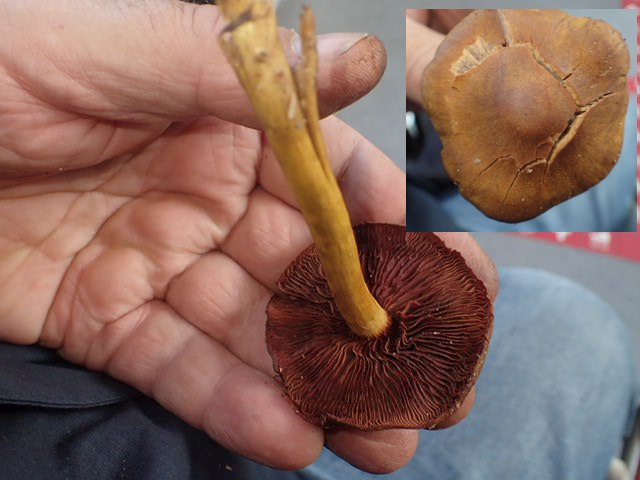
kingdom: Fungi
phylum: Basidiomycota
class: Agaricomycetes
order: Agaricales
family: Cortinariaceae
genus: Cortinarius
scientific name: Cortinarius
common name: cinnoberbladet slørhat
